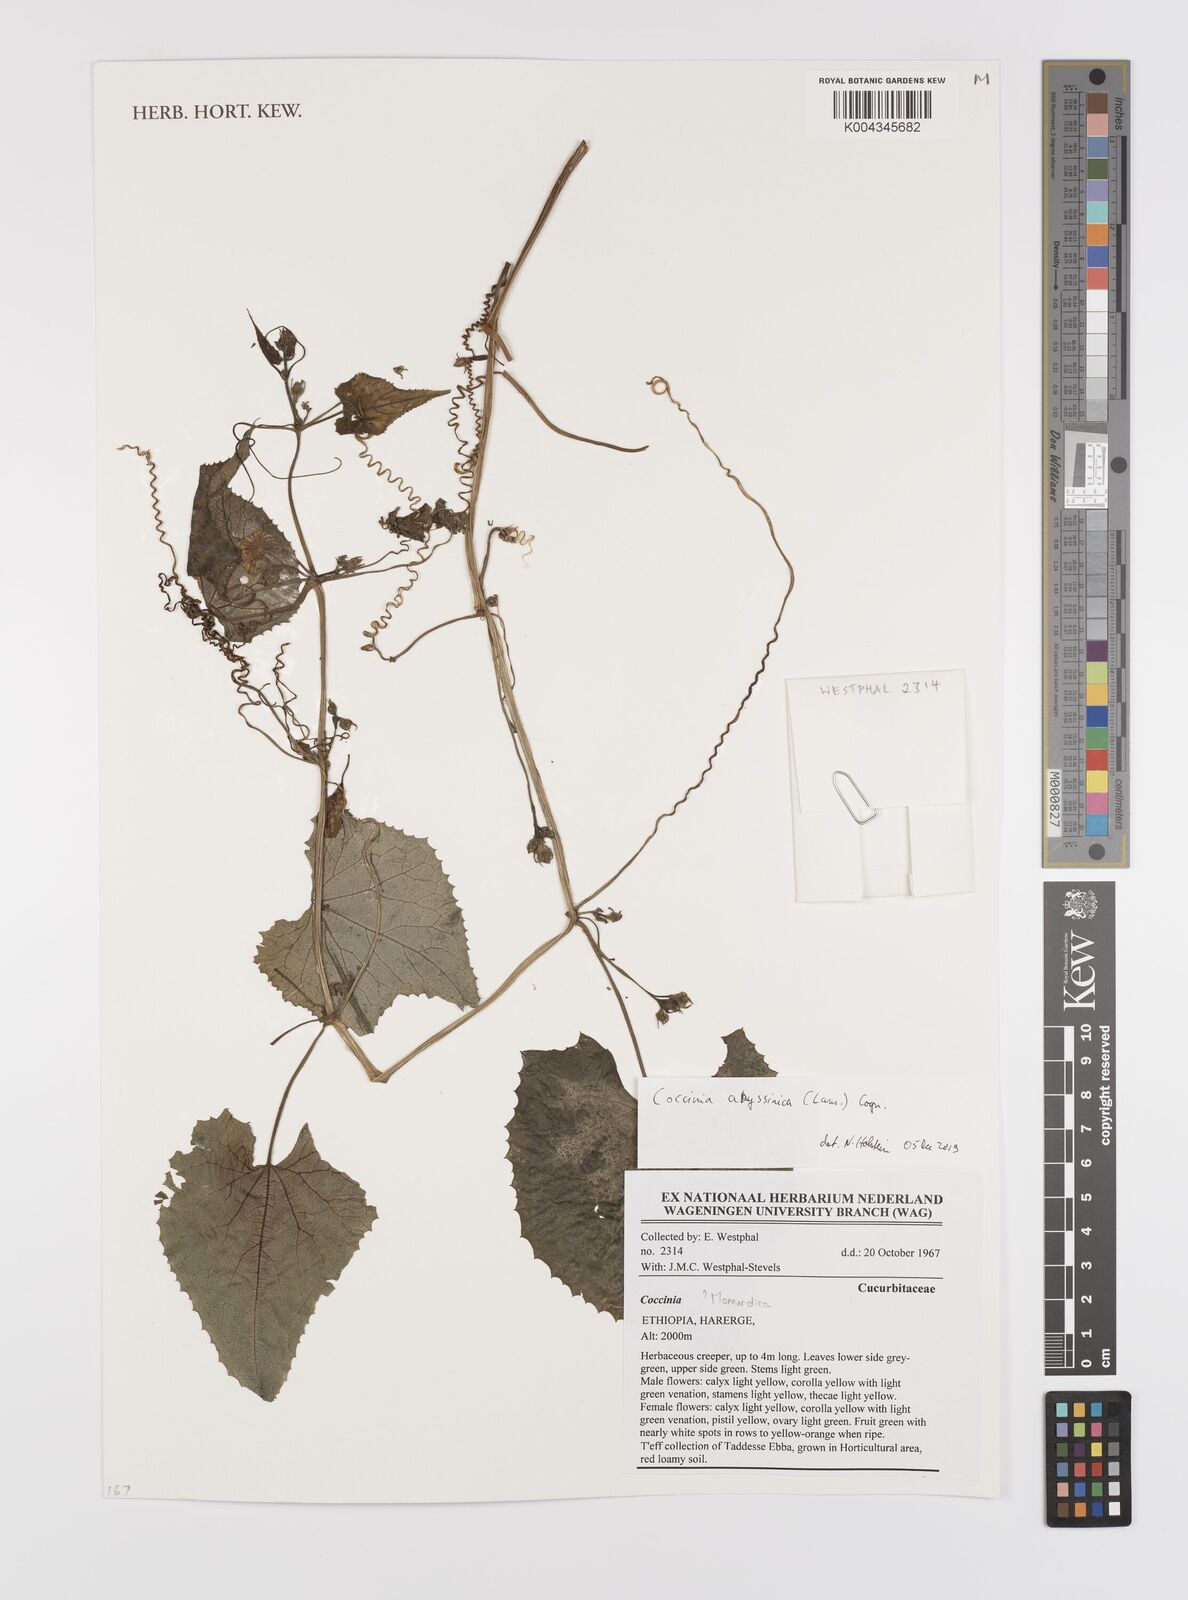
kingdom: Plantae
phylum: Tracheophyta
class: Magnoliopsida
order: Cucurbitales
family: Cucurbitaceae
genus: Coccinia
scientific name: Coccinia abyssinica
